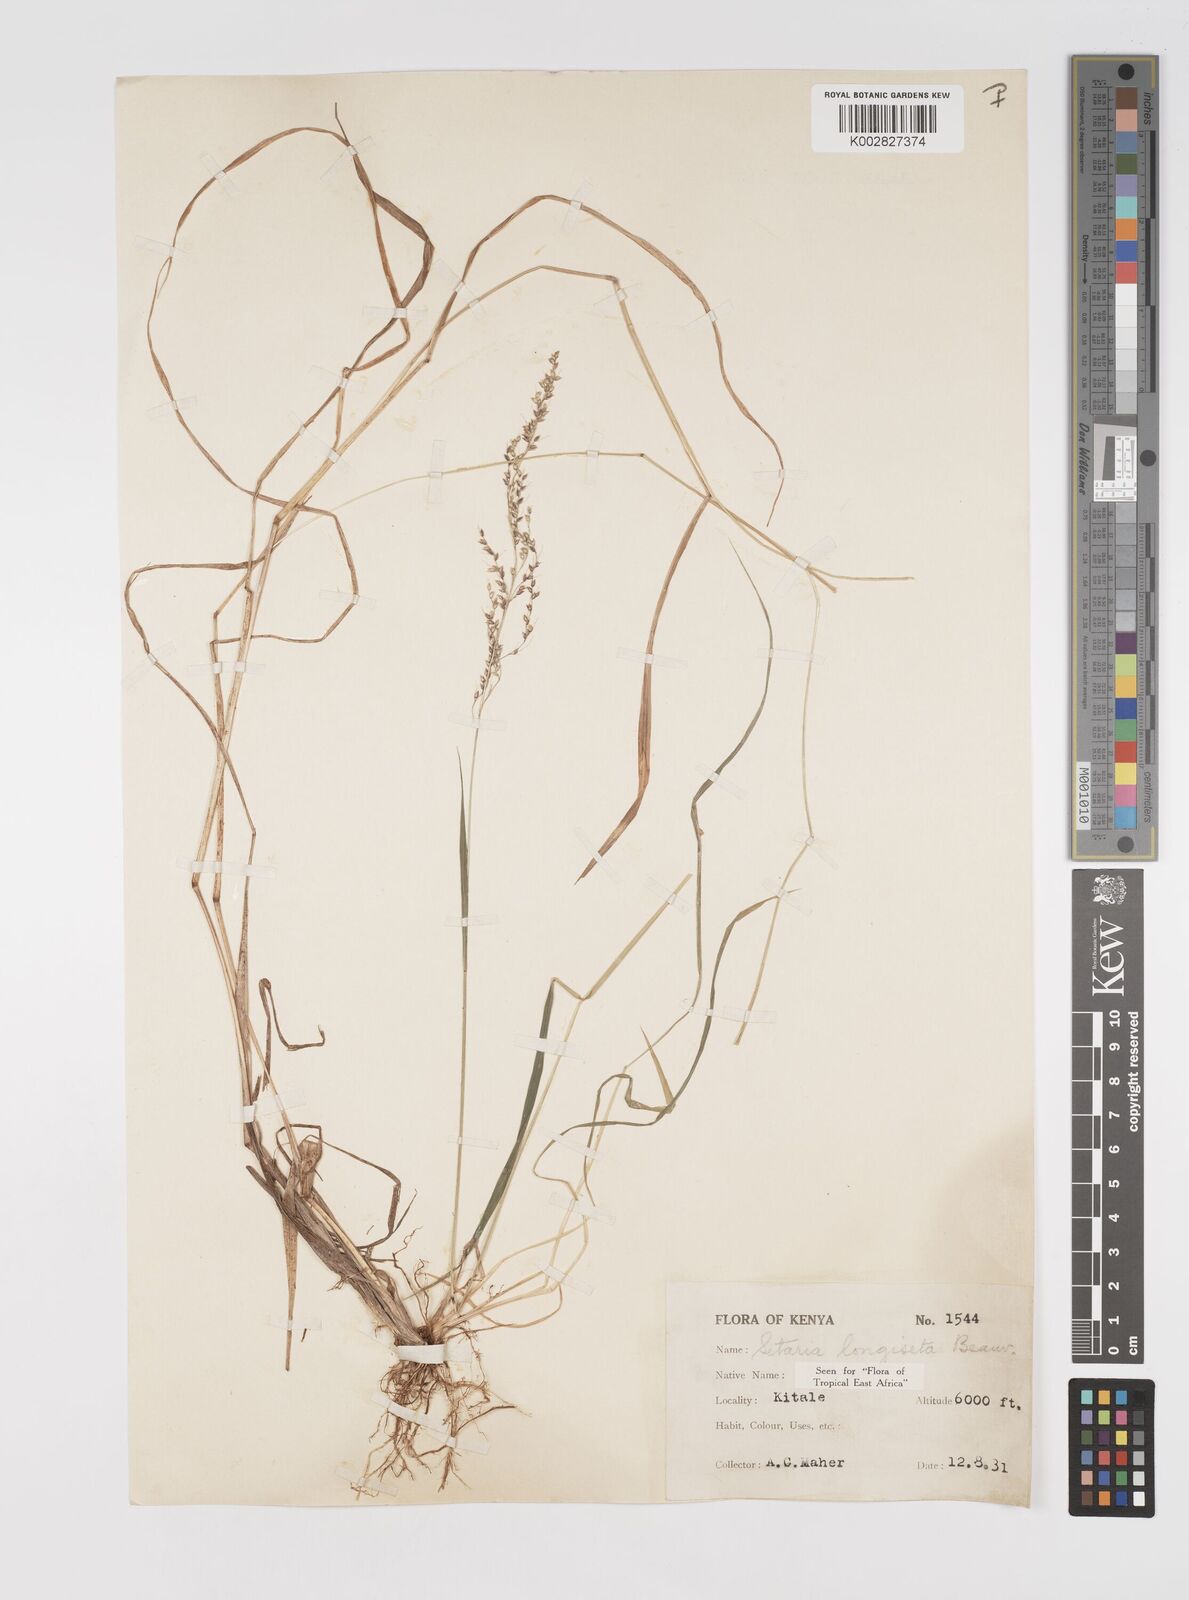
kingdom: Plantae
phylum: Tracheophyta
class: Liliopsida
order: Poales
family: Poaceae
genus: Setaria
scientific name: Setaria longiseta
